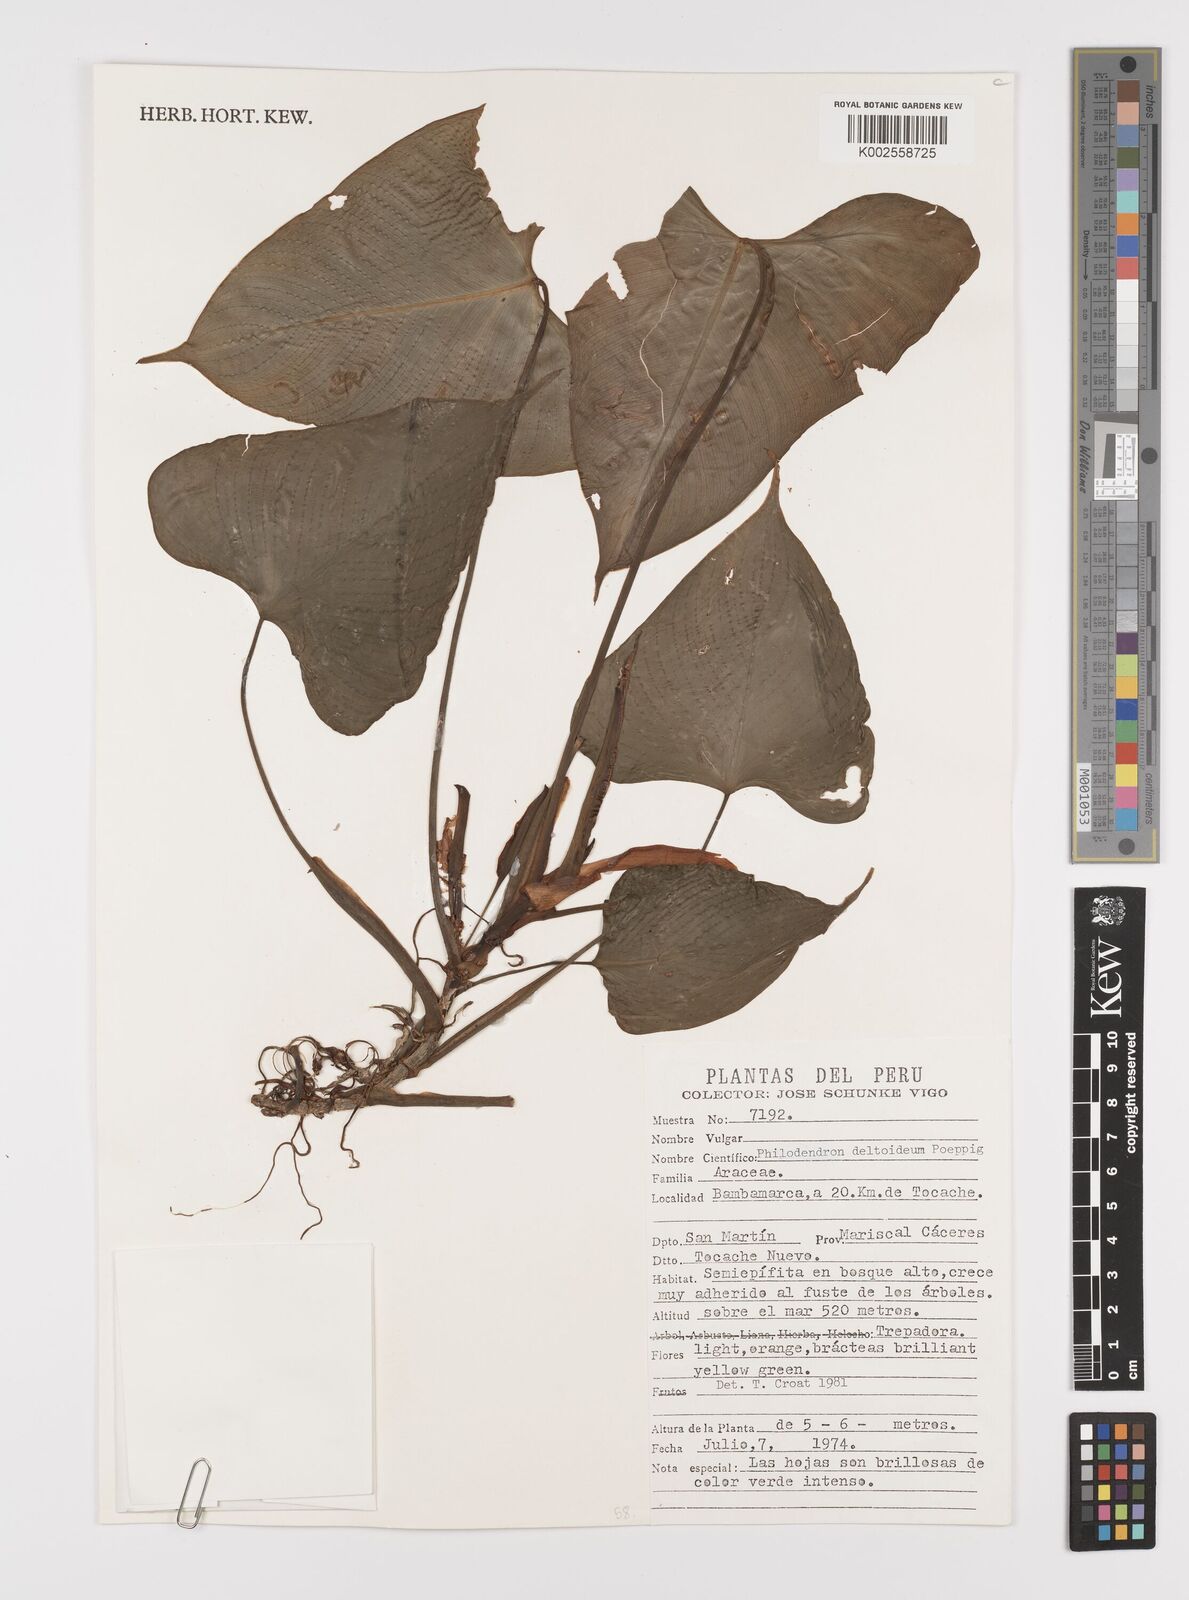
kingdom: Plantae
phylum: Tracheophyta
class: Liliopsida
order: Alismatales
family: Araceae
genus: Philodendron
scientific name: Philodendron deltoideum
